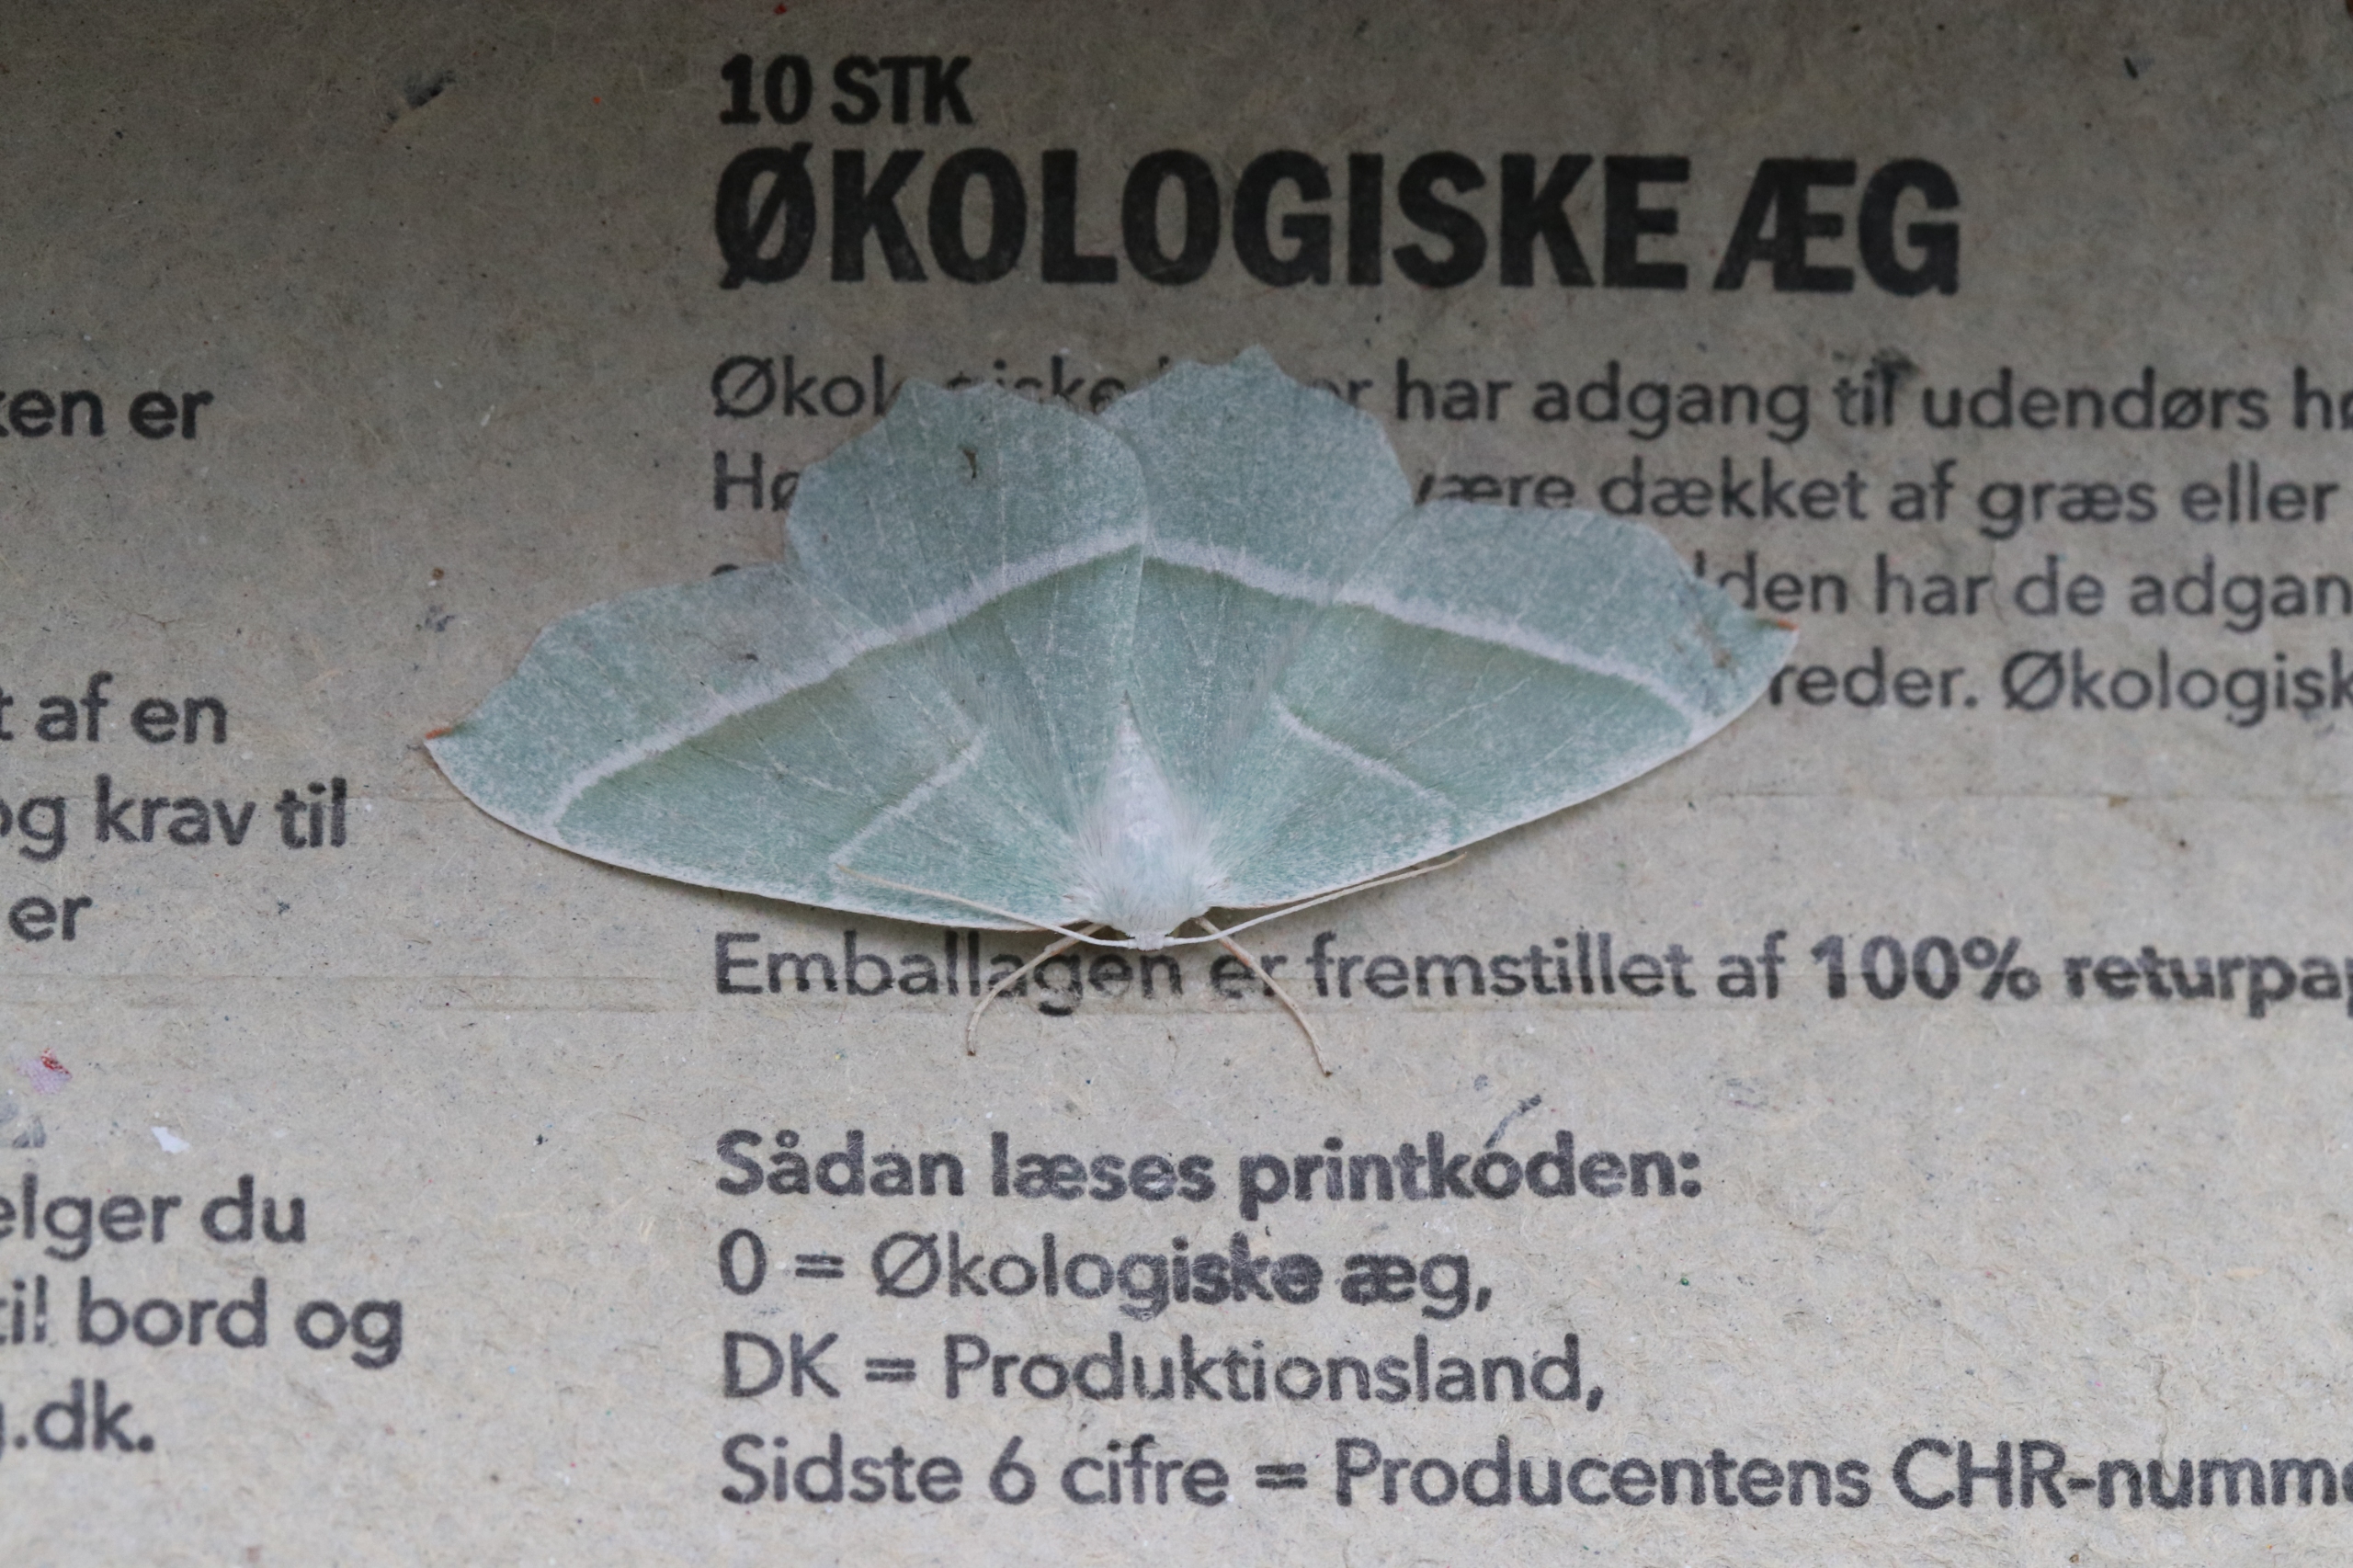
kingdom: Animalia
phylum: Arthropoda
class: Insecta
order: Lepidoptera
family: Geometridae
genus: Campaea
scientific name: Campaea margaritaria
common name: Perlemåler
